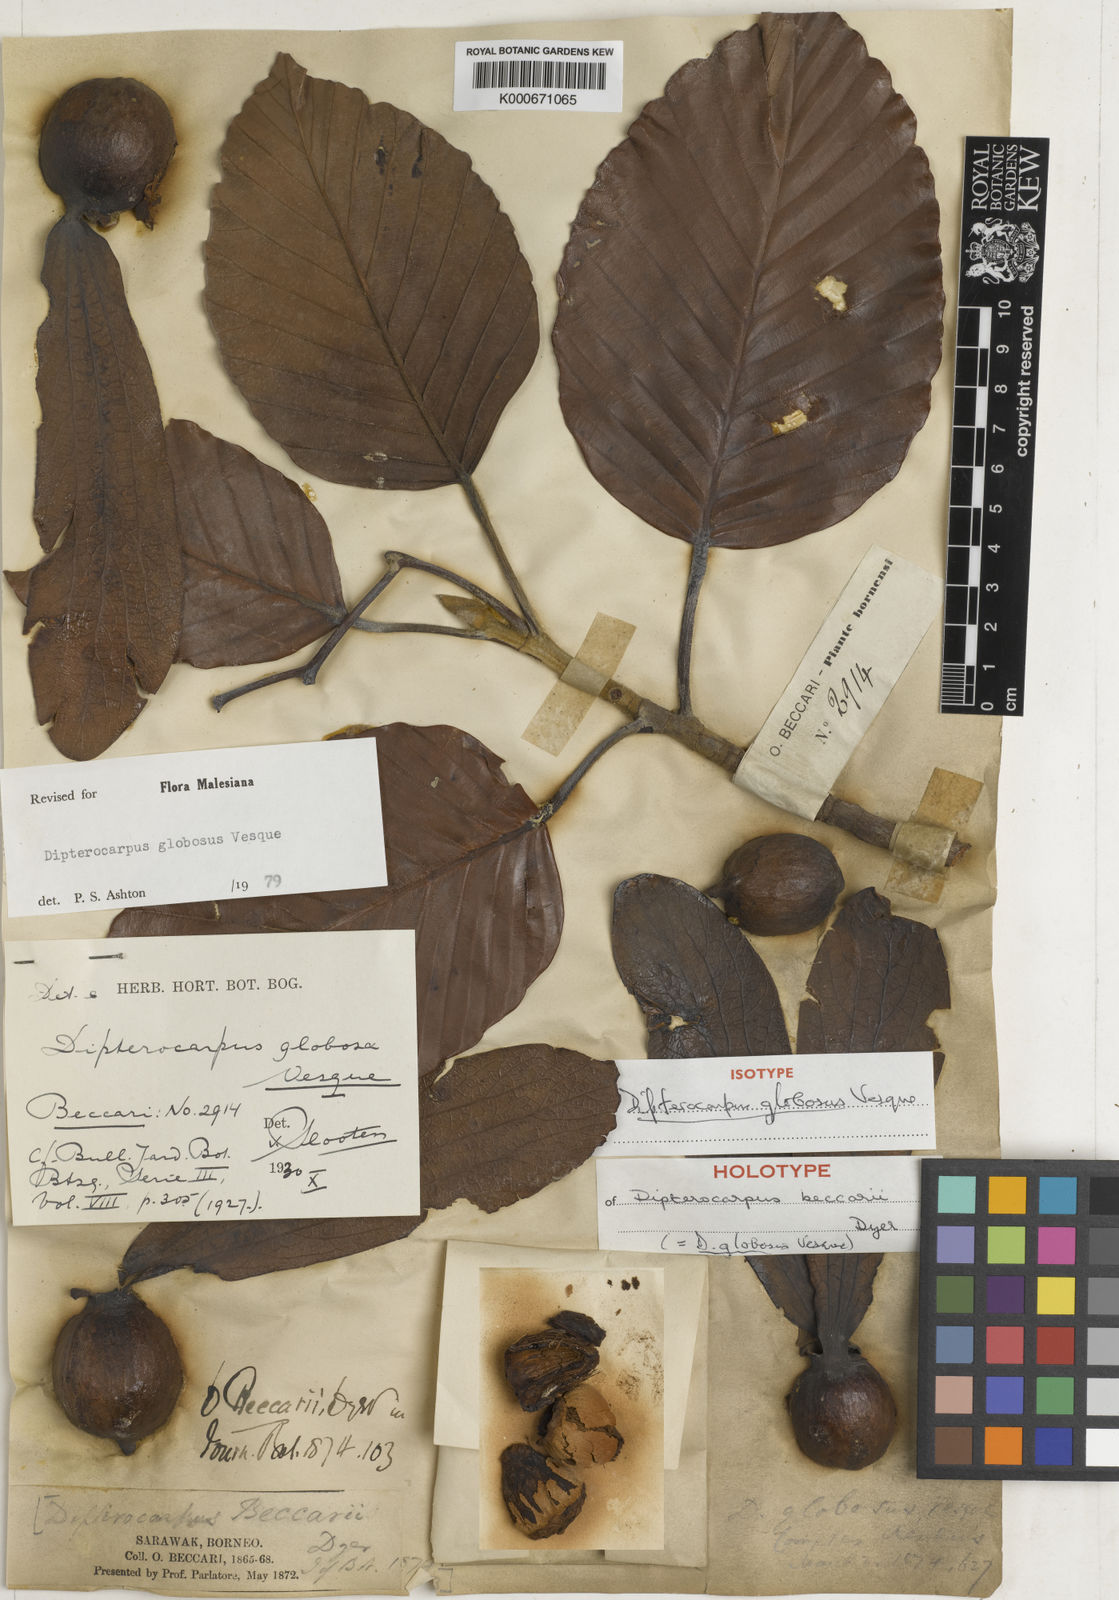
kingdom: Plantae
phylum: Tracheophyta
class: Magnoliopsida
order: Malvales
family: Dipterocarpaceae
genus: Dipterocarpus
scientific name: Dipterocarpus globosus
